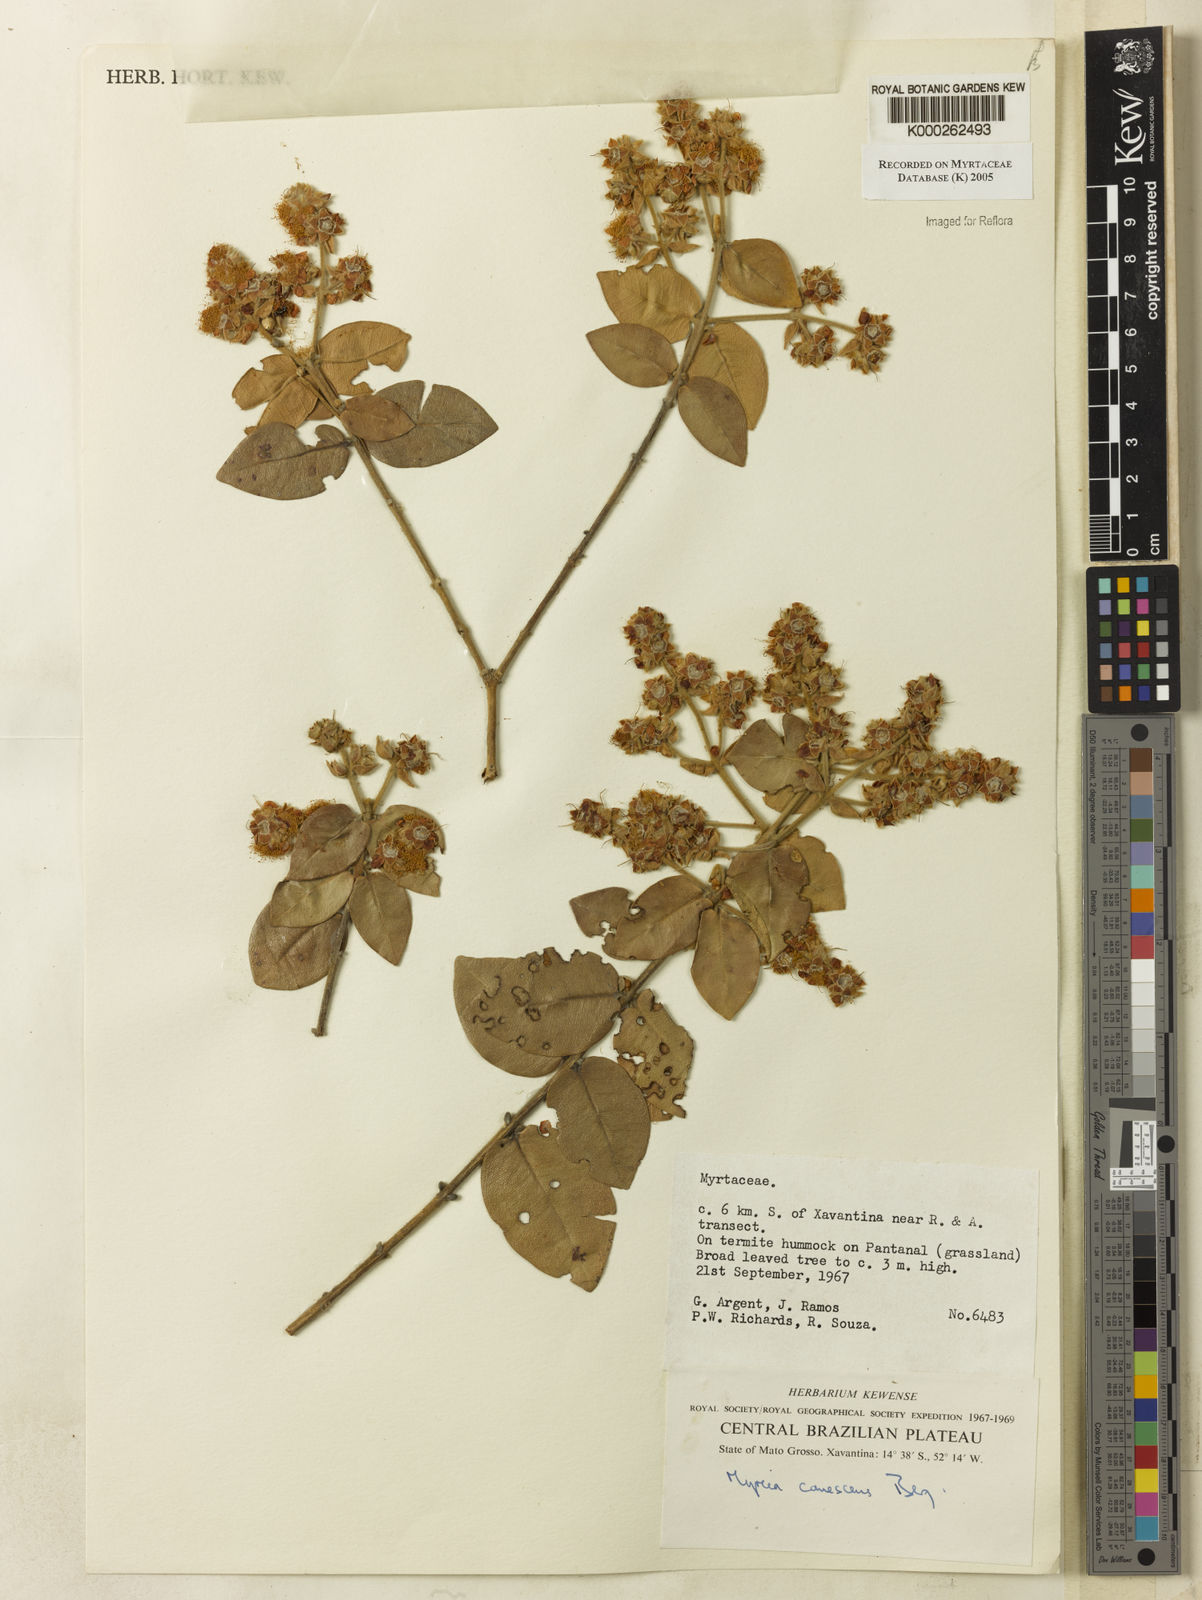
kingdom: Plantae
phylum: Tracheophyta
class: Magnoliopsida
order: Myrtales
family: Myrtaceae
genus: Myrcia
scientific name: Myrcia canescens
